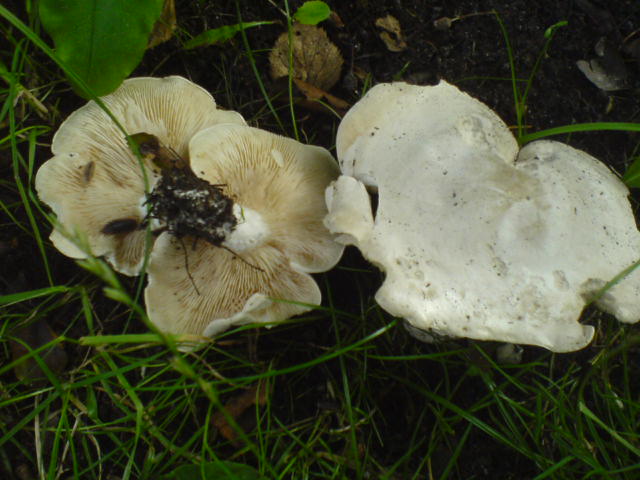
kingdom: Fungi
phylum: Basidiomycota
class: Agaricomycetes
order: Agaricales
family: Entolomataceae
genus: Clitopilus
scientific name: Clitopilus prunulus
